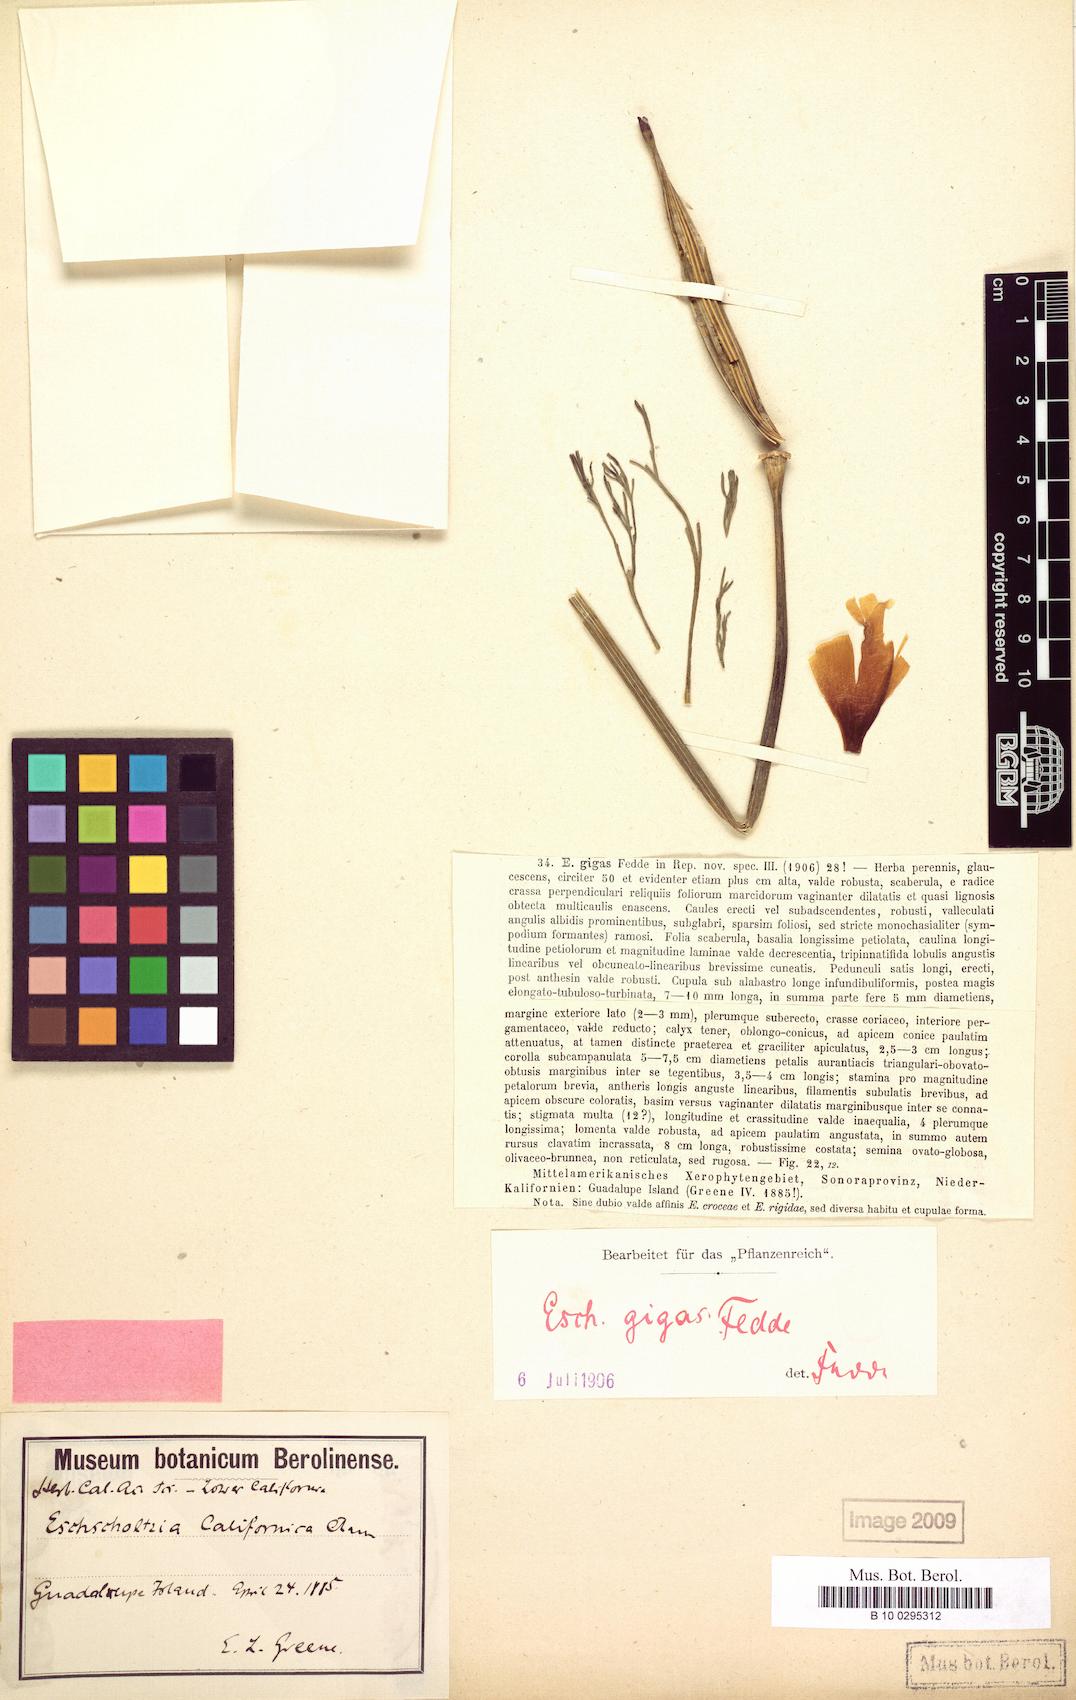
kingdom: Plantae
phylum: Tracheophyta
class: Magnoliopsida
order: Ranunculales
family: Papaveraceae
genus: Eschscholzia
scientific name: Eschscholzia californica
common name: California poppy
